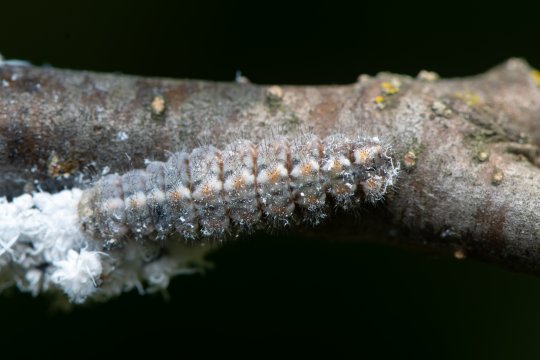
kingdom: Animalia
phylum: Arthropoda
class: Insecta
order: Lepidoptera
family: Lycaenidae
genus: Feniseca
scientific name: Feniseca tarquinius
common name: Harvester
